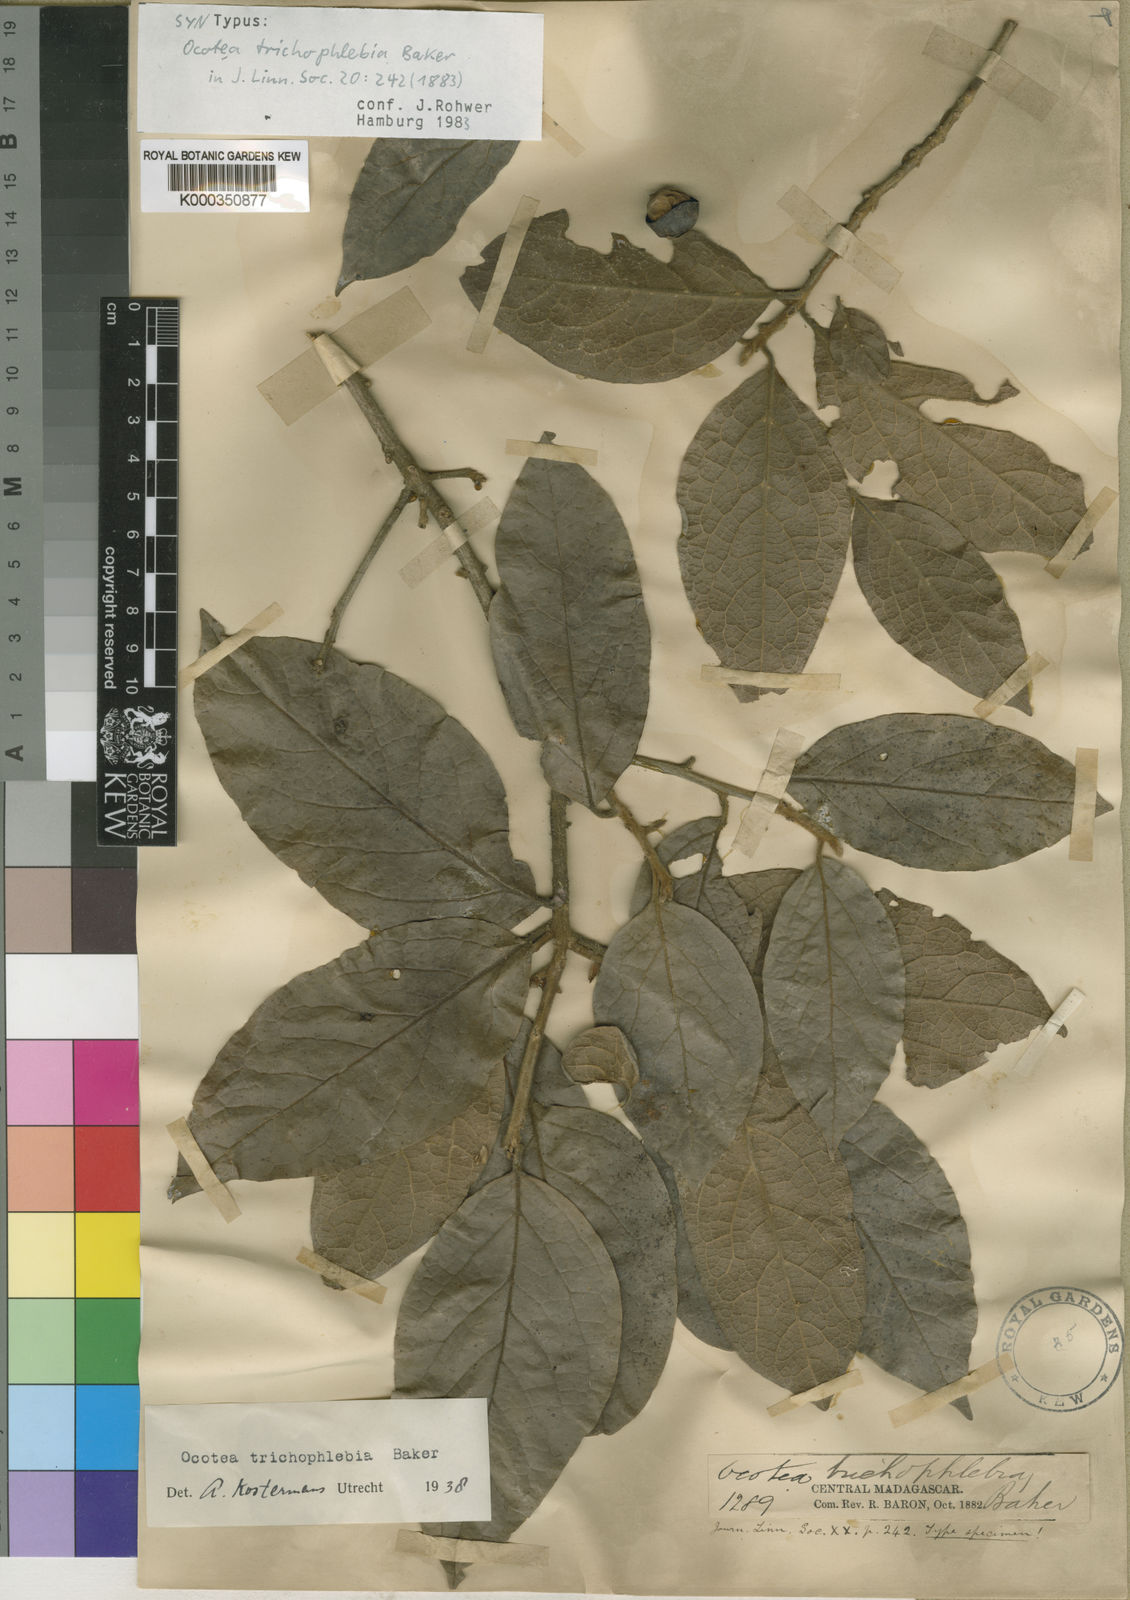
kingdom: Plantae
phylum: Tracheophyta
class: Magnoliopsida
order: Laurales
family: Lauraceae
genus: Mespilodaphne
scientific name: Mespilodaphne trichophlebia
